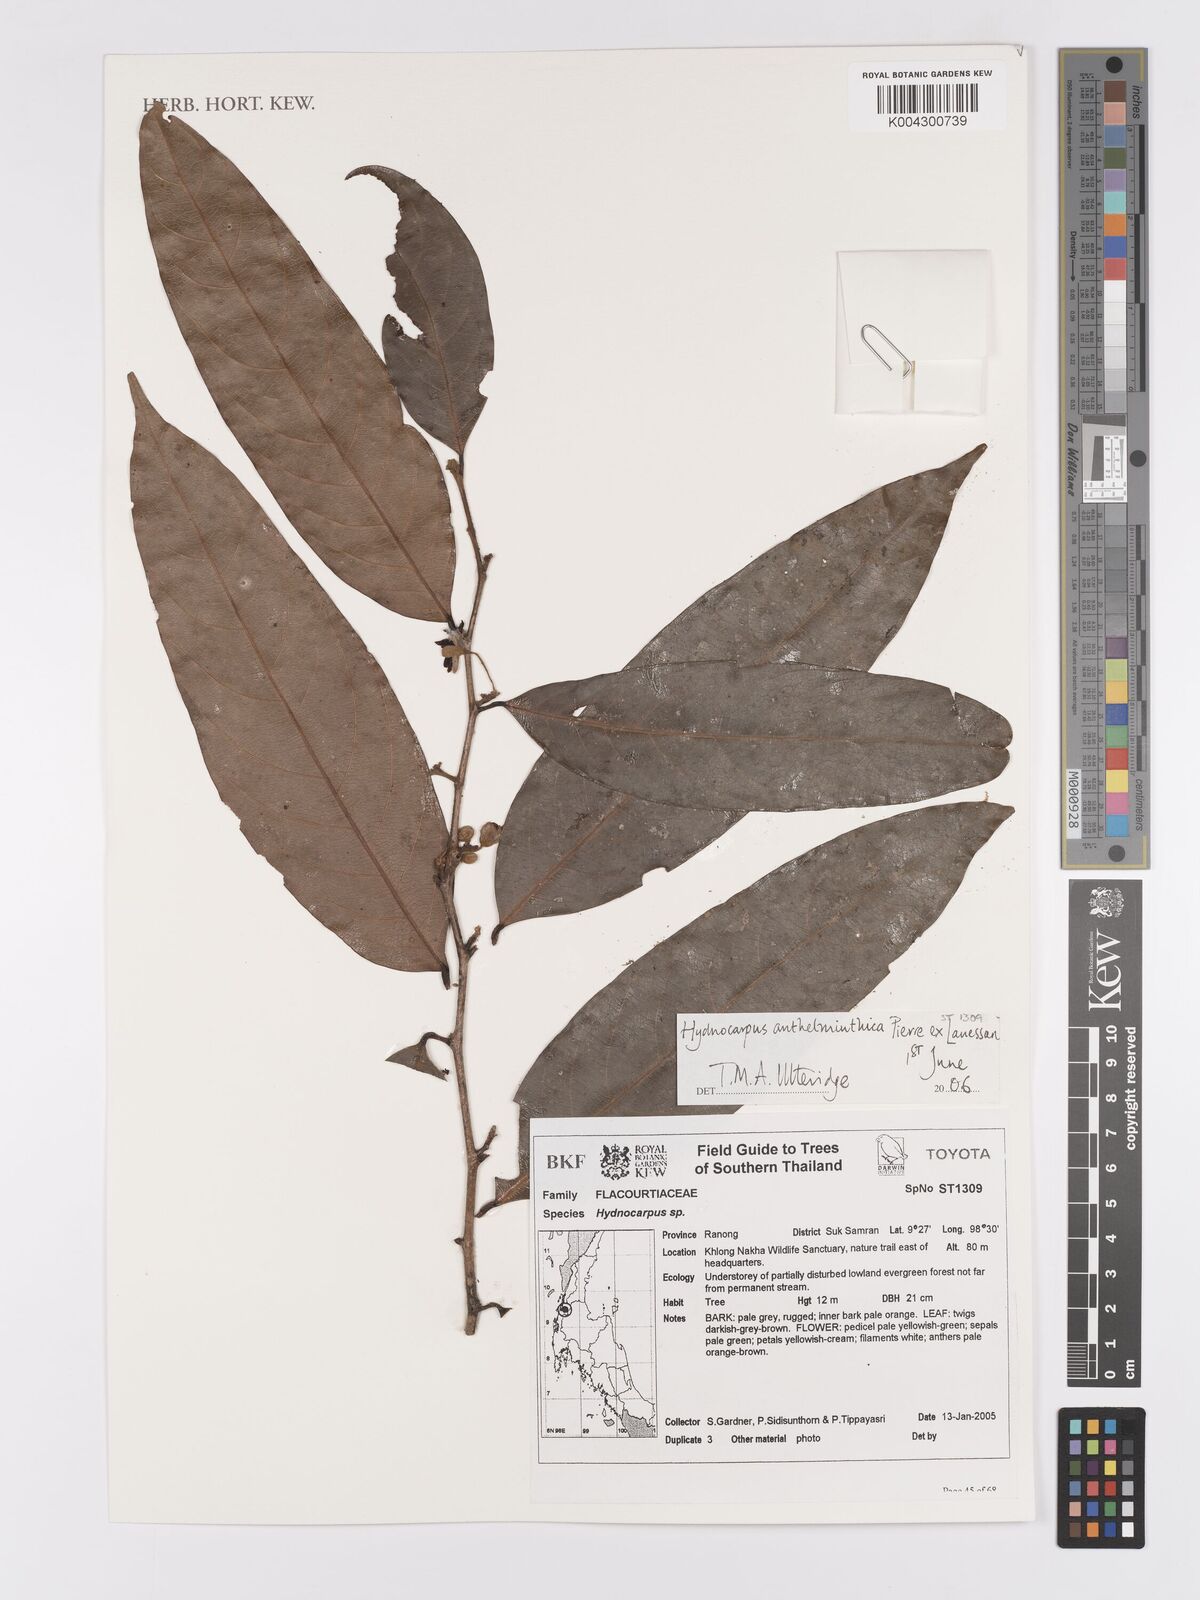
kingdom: Plantae
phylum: Tracheophyta
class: Magnoliopsida
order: Malpighiales
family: Achariaceae
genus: Hydnocarpus
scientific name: Hydnocarpus
